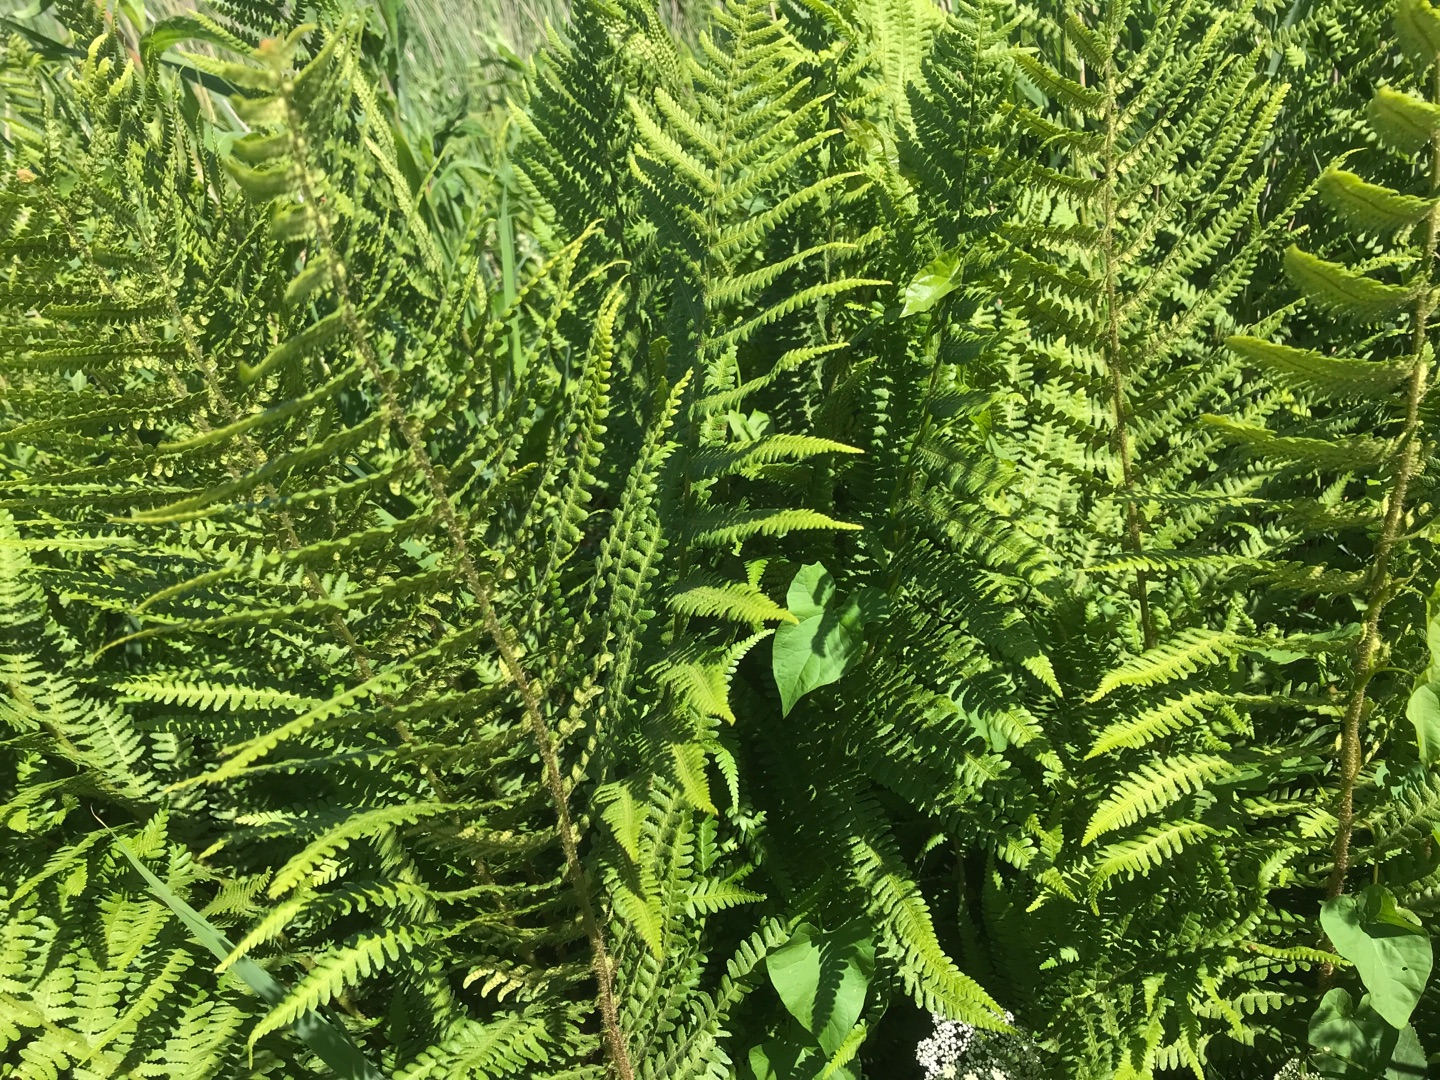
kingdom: Plantae
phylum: Tracheophyta
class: Polypodiopsida
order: Polypodiales
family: Dryopteridaceae
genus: Dryopteris
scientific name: Dryopteris filix-mas
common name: Almindelig mangeløv
